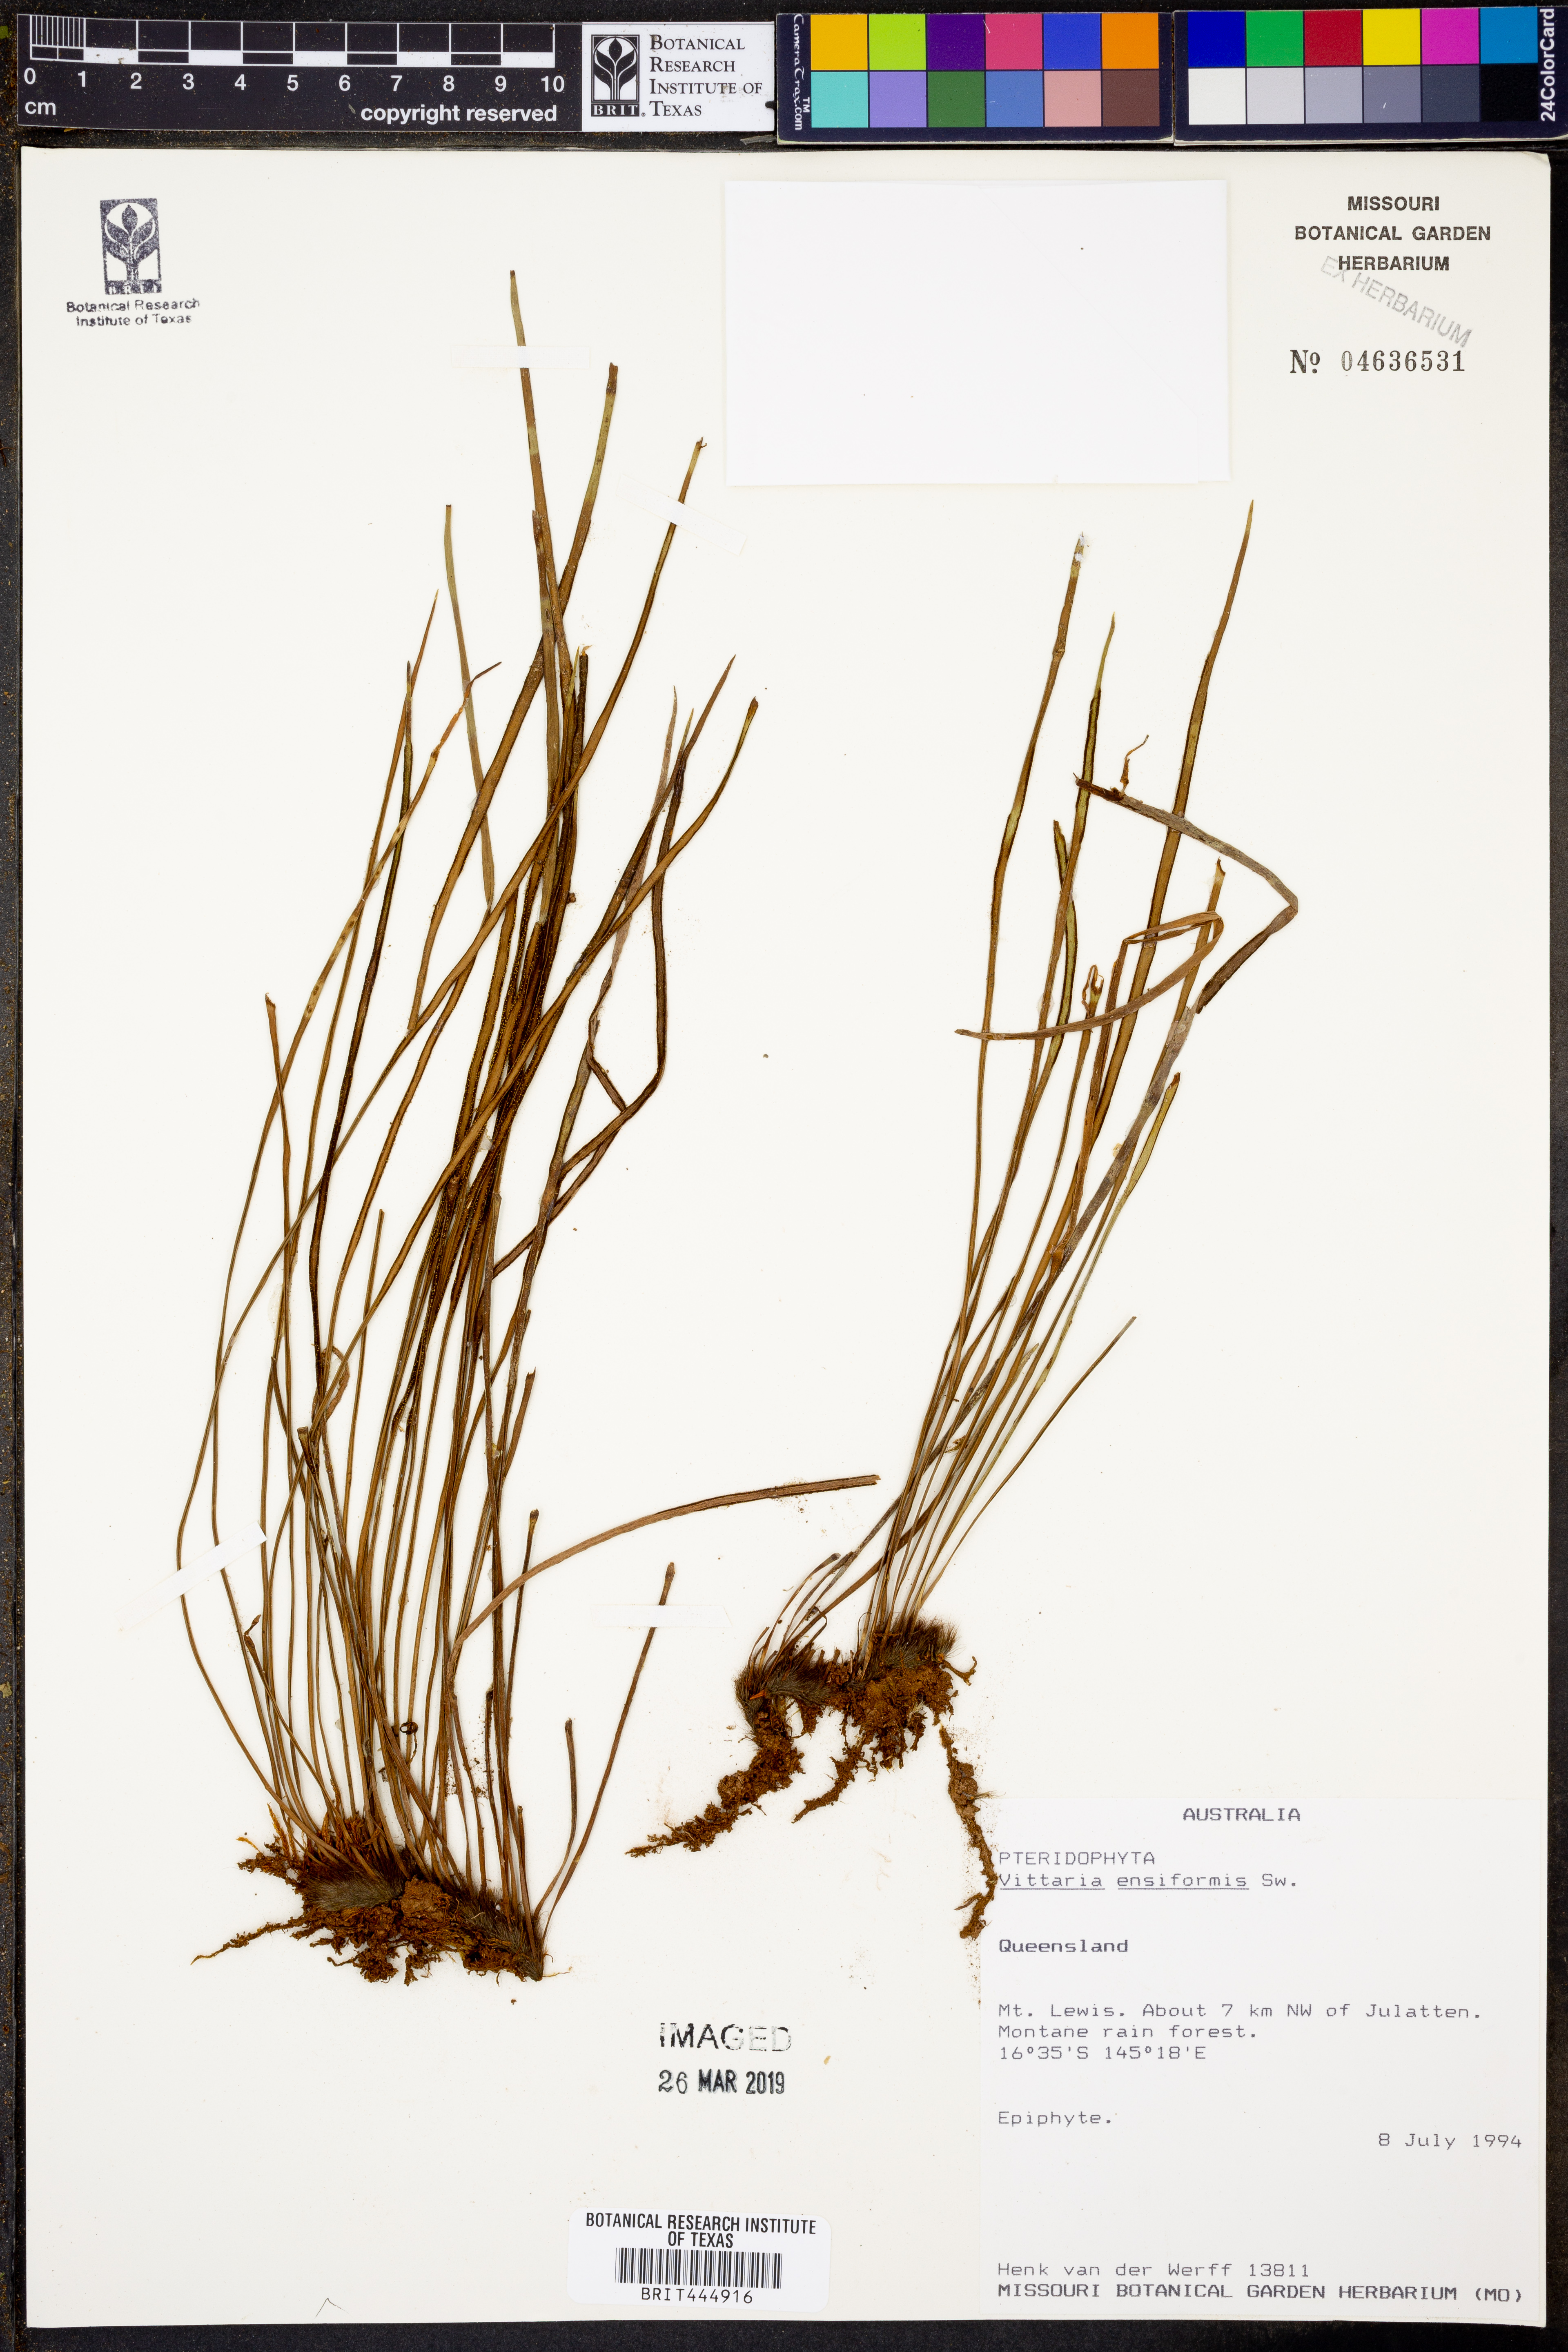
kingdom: Plantae
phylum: Tracheophyta
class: Polypodiopsida
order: Polypodiales
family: Pteridaceae
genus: Haplopteris
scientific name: Haplopteris ensiformis
